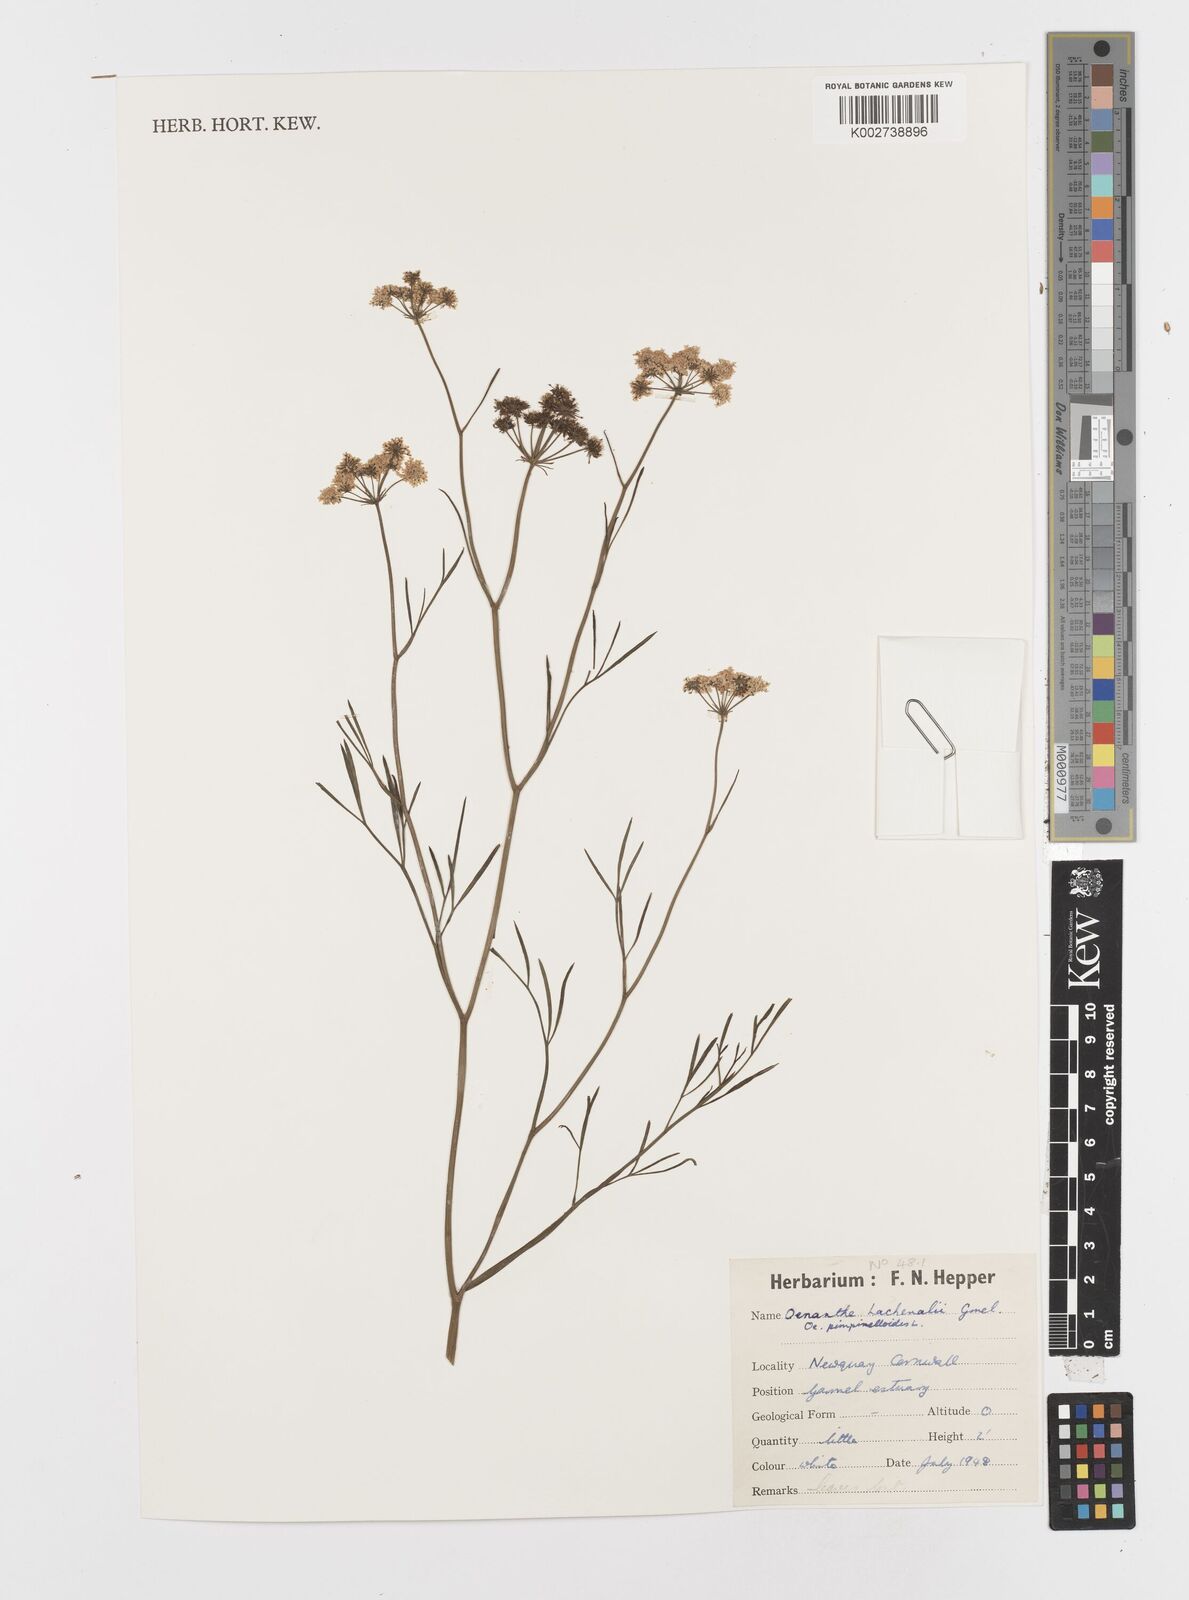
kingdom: Plantae
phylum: Tracheophyta
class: Magnoliopsida
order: Apiales
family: Apiaceae
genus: Oenanthe
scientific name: Oenanthe lachenalii
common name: Parsley water-dropwort
